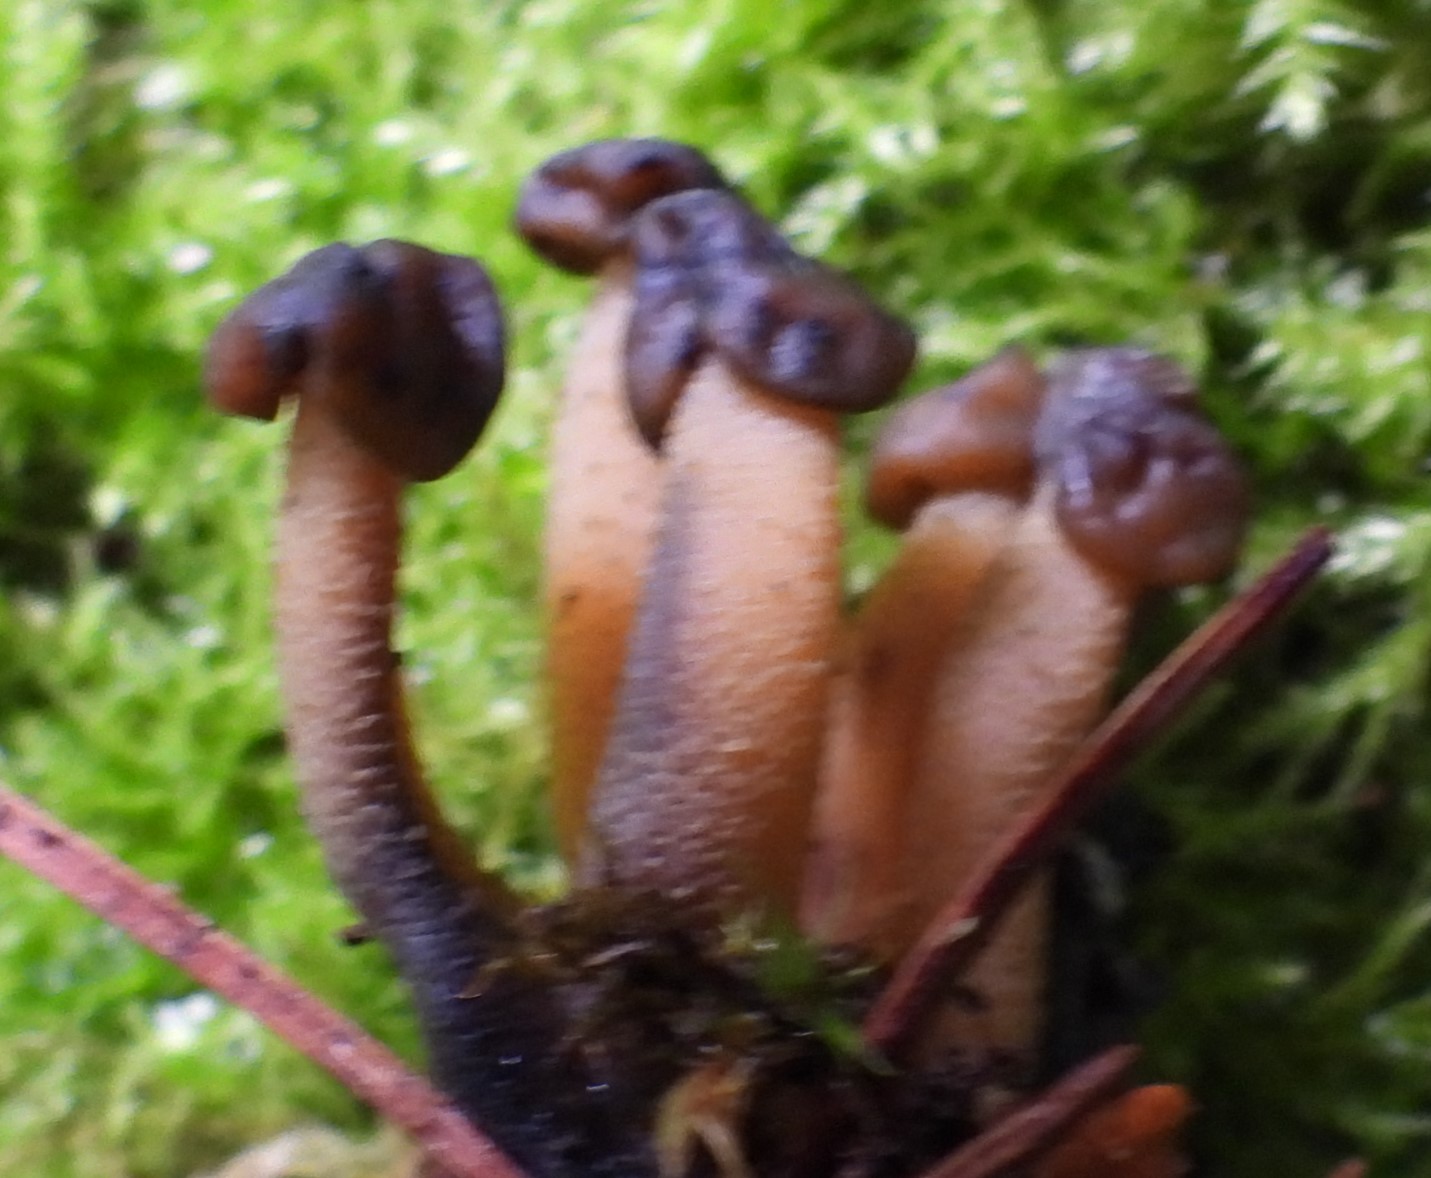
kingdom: Fungi
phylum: Ascomycota
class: Leotiomycetes
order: Leotiales
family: Leotiaceae
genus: Leotia
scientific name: Leotia lubrica
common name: ravsvamp
